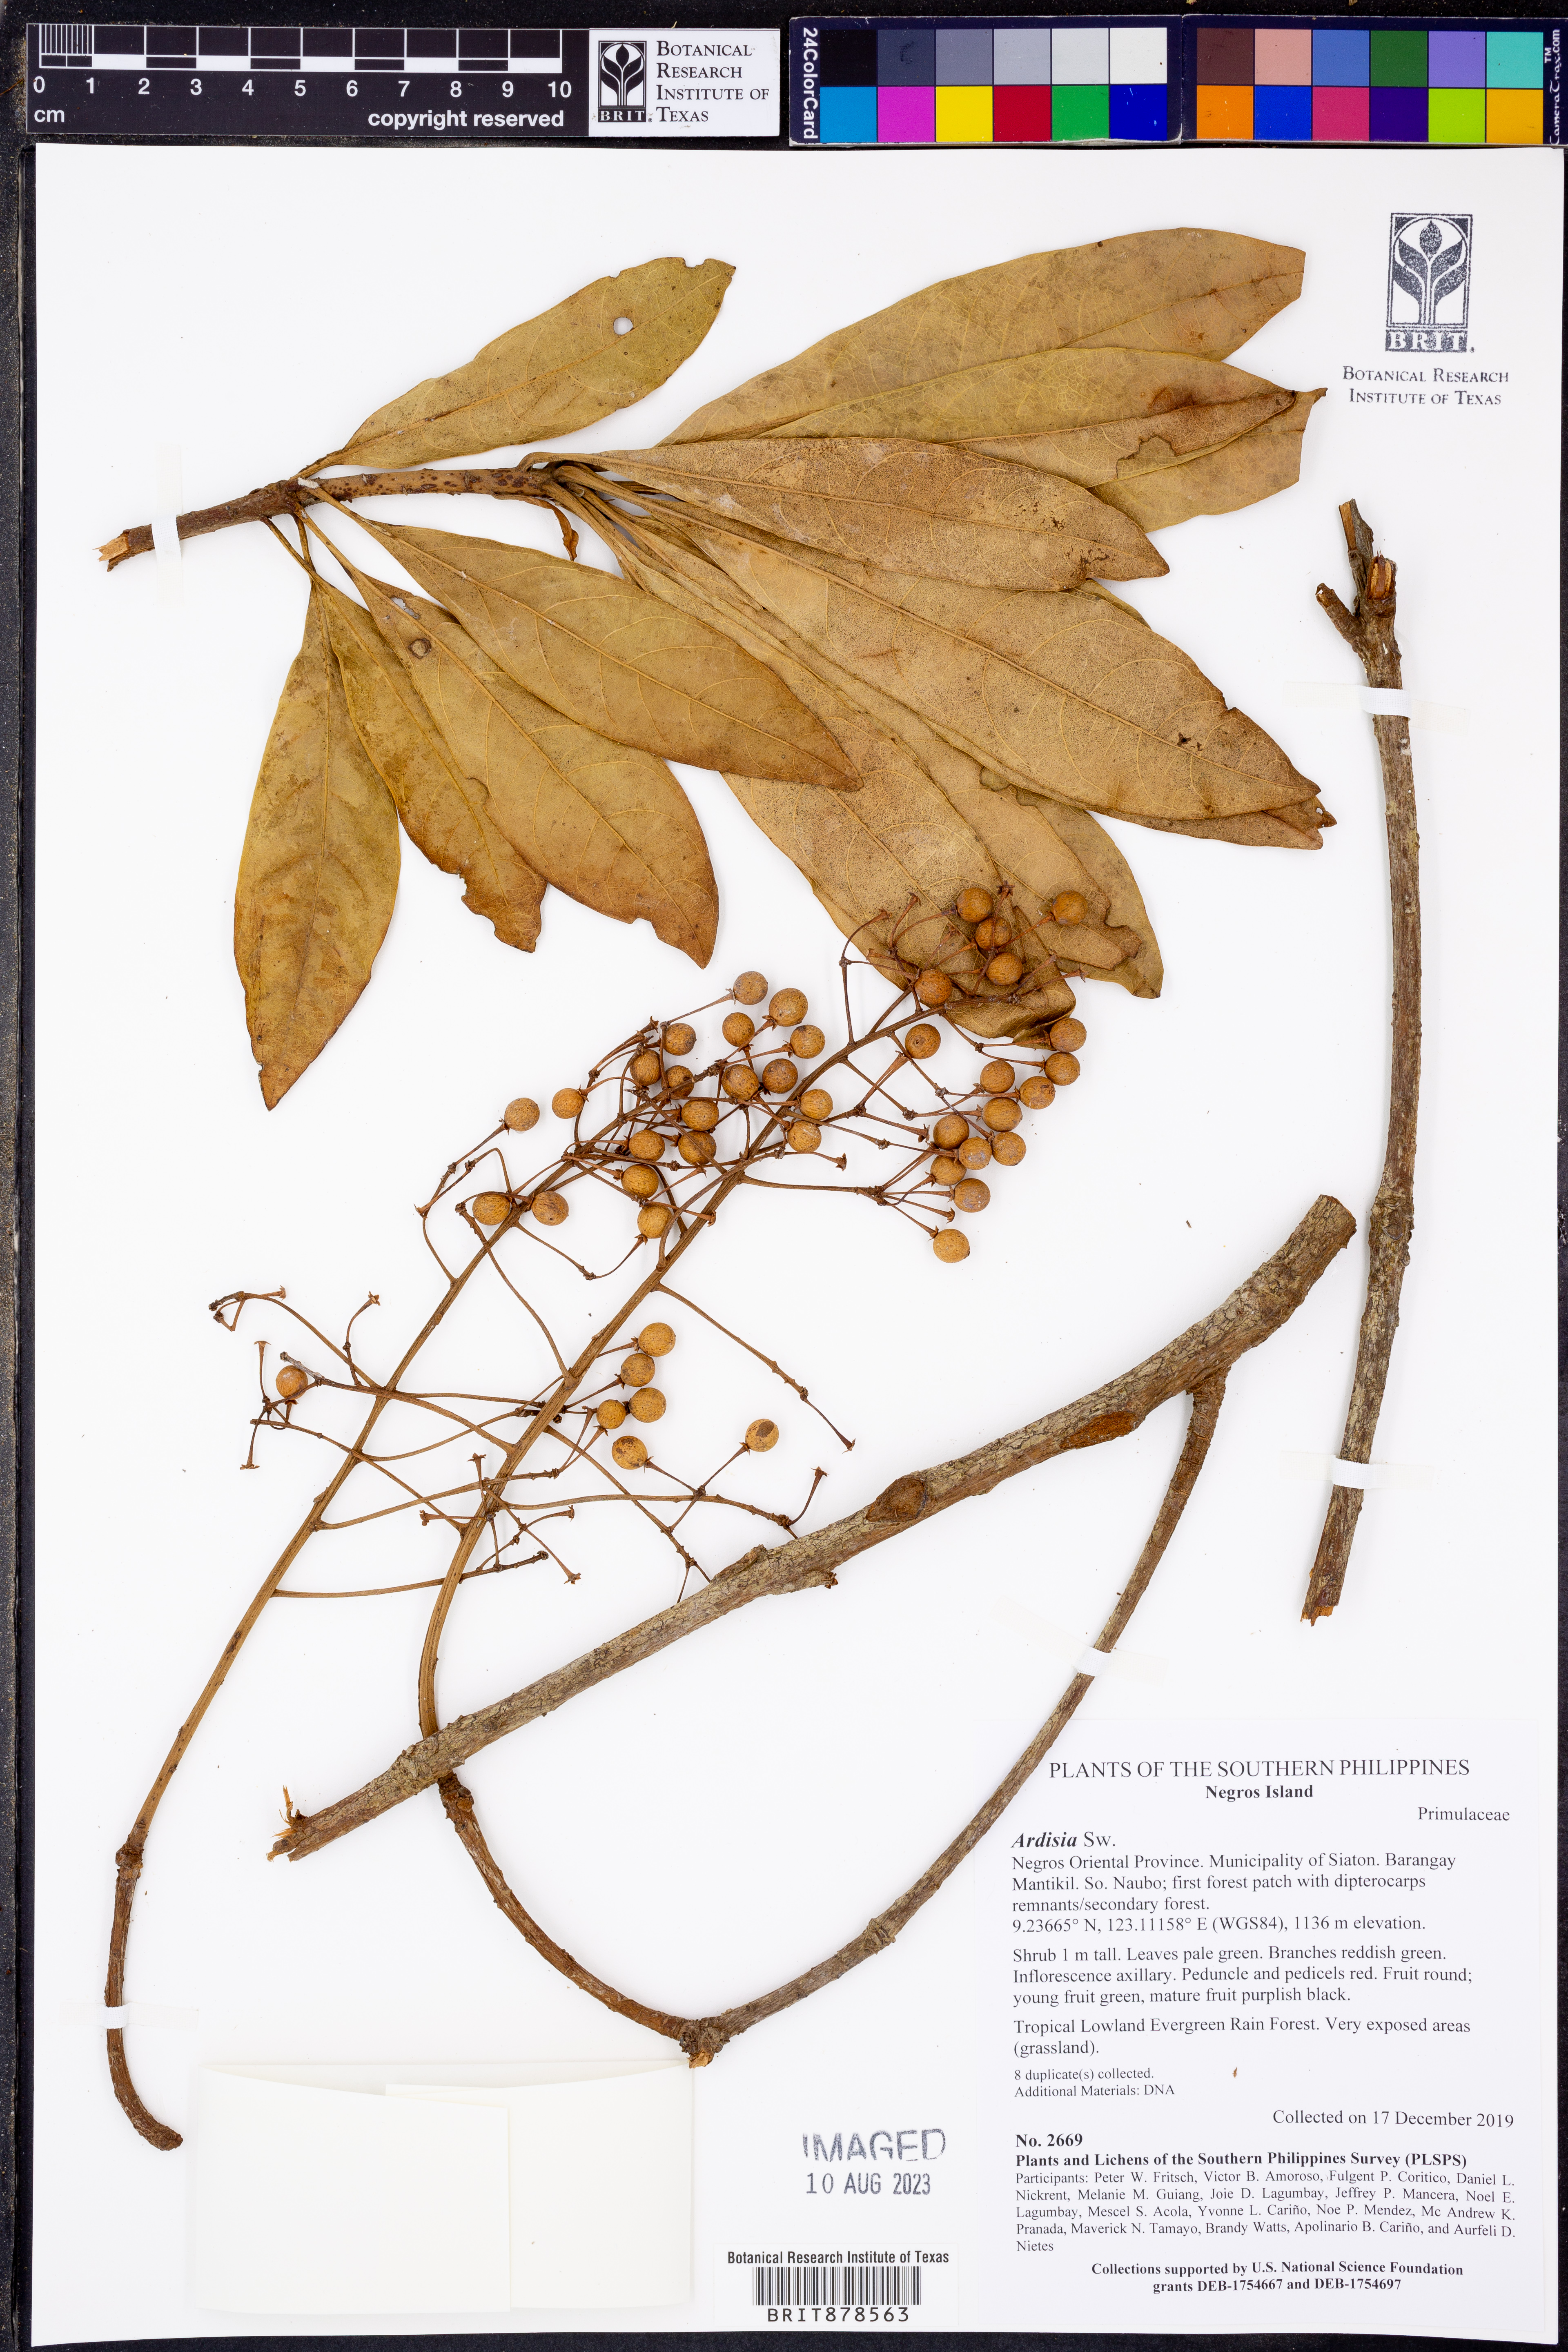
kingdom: Plantae
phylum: Tracheophyta
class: Magnoliopsida
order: Ericales
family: Primulaceae
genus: Ardisia
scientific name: Ardisia
